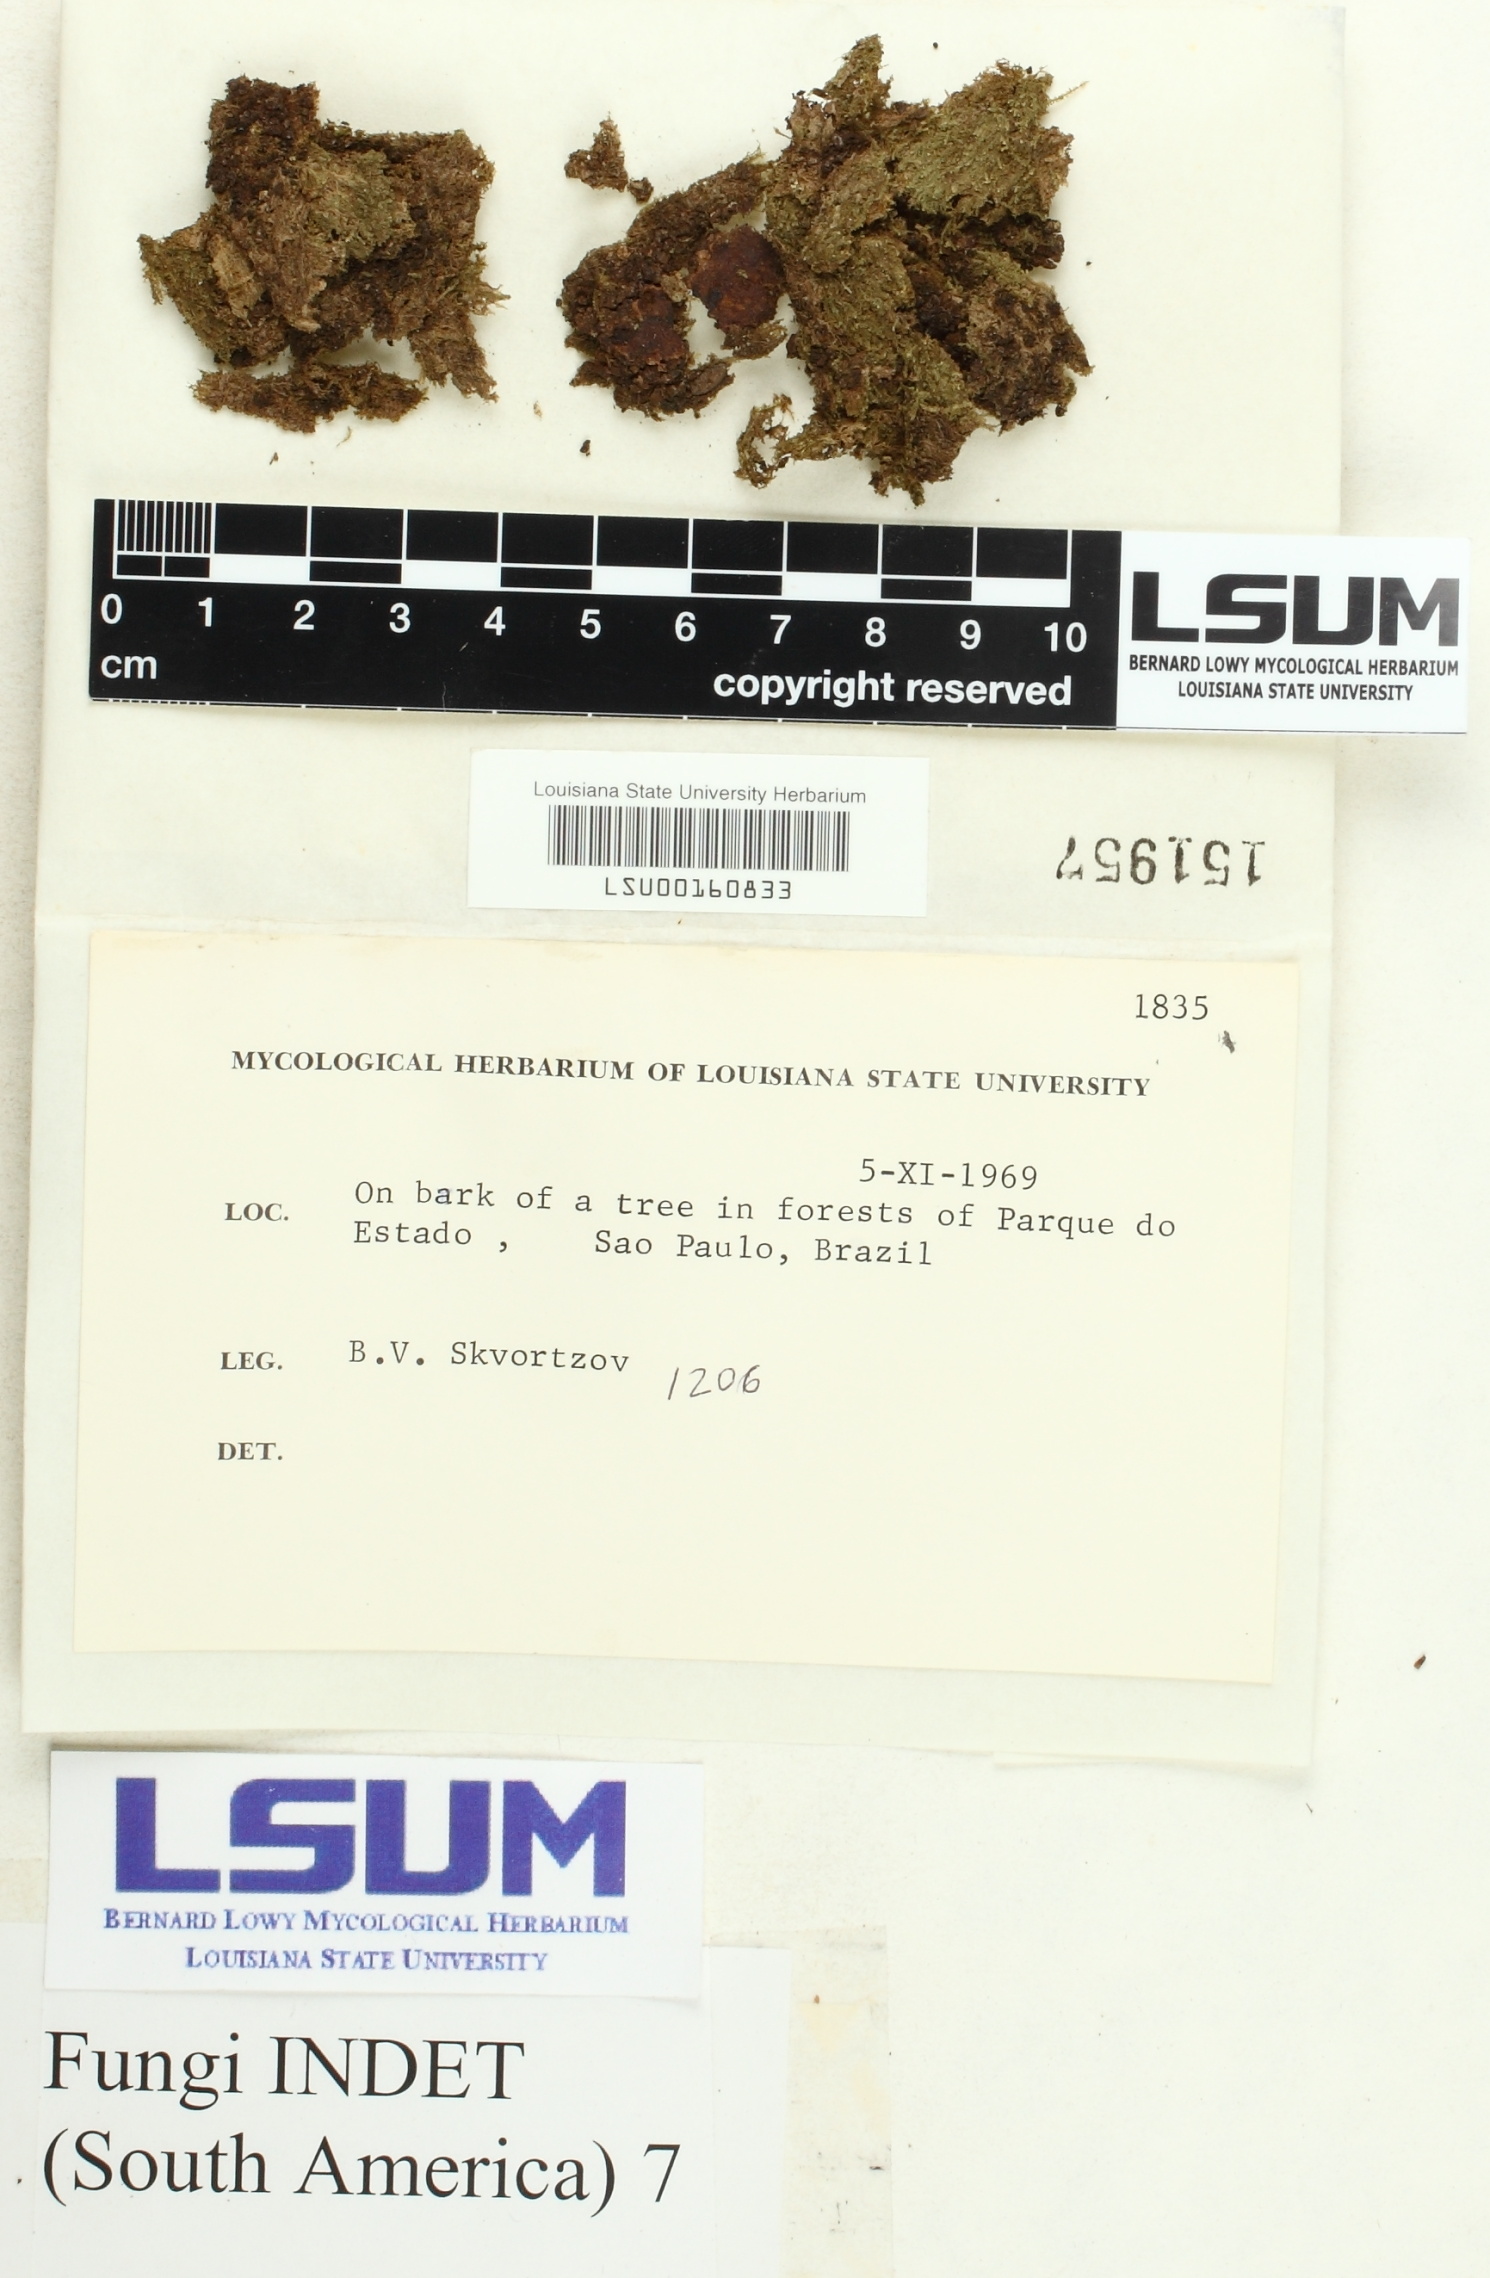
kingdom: Fungi
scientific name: Fungi
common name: Fungi
